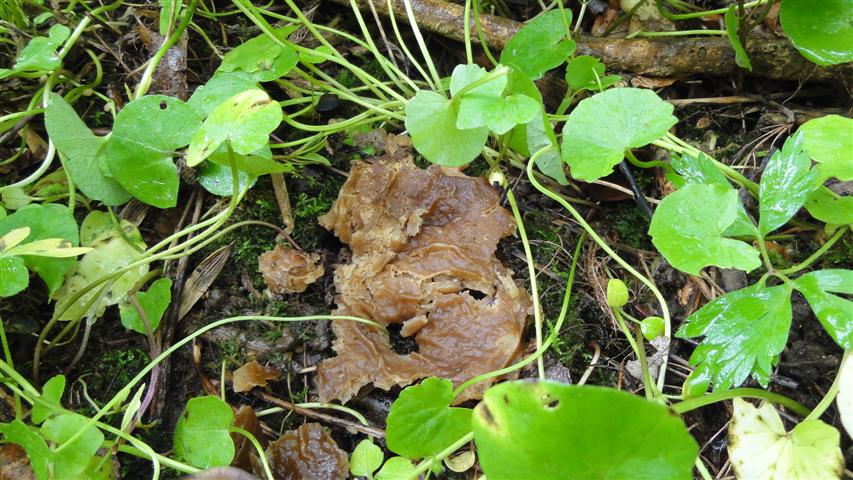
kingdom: Fungi
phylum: Ascomycota
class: Pezizomycetes
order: Pezizales
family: Morchellaceae
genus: Disciotis
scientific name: Disciotis venosa
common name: klor-bægermorkel
